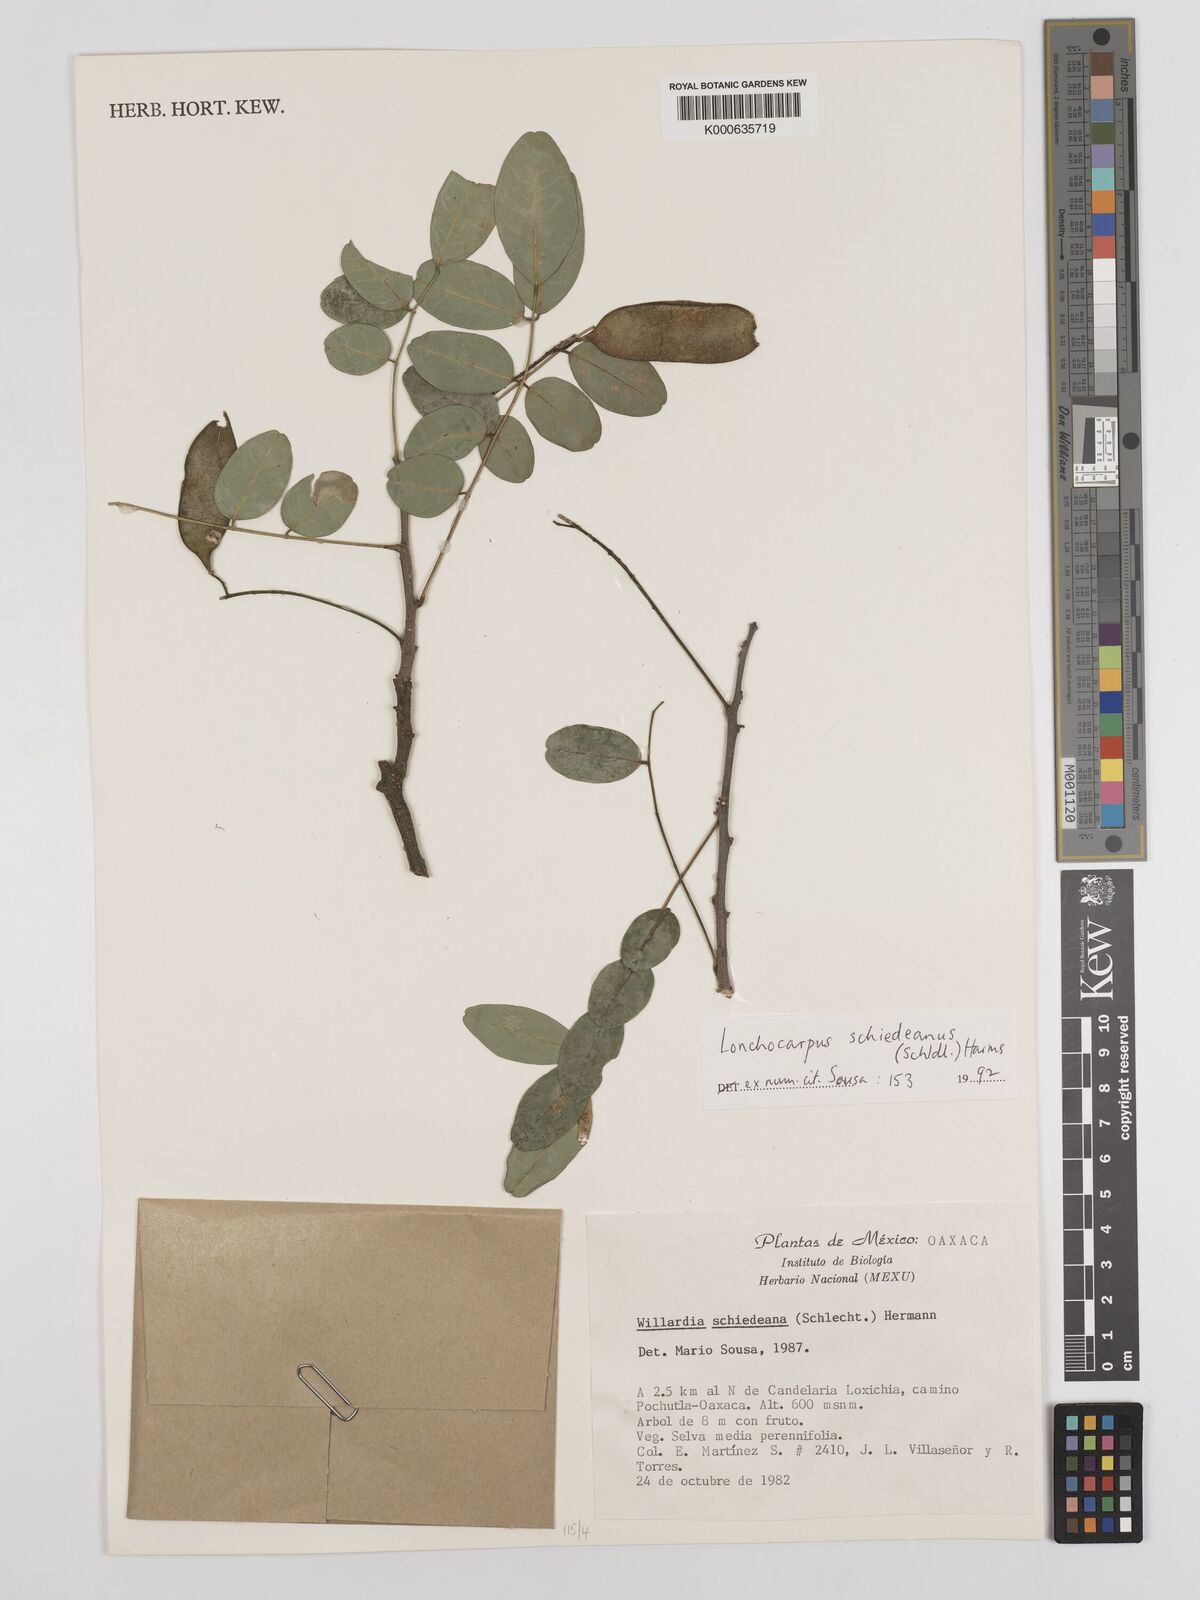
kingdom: Plantae
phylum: Tracheophyta
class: Magnoliopsida
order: Fabales
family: Fabaceae
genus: Lonchocarpus
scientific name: Lonchocarpus schiedeanus
